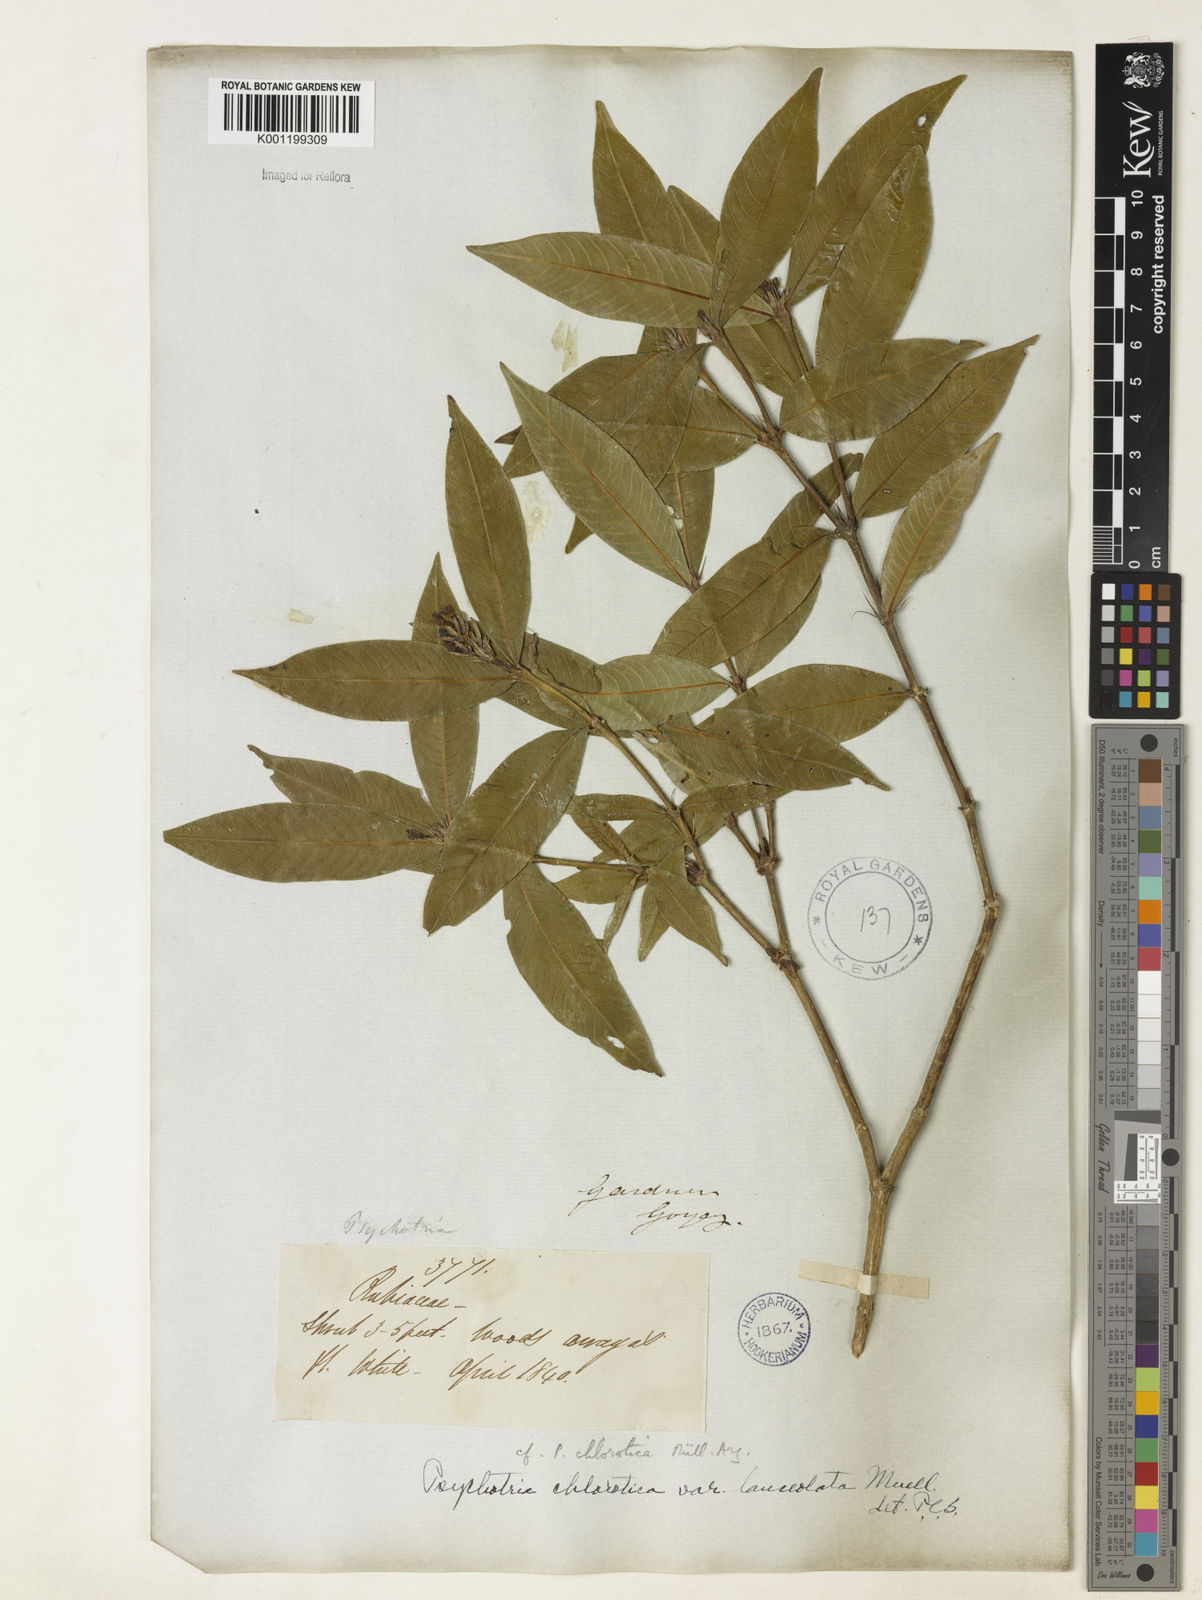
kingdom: Plantae
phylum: Tracheophyta
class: Magnoliopsida
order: Gentianales
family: Rubiaceae
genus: Palicourea
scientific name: Palicourea violacea
